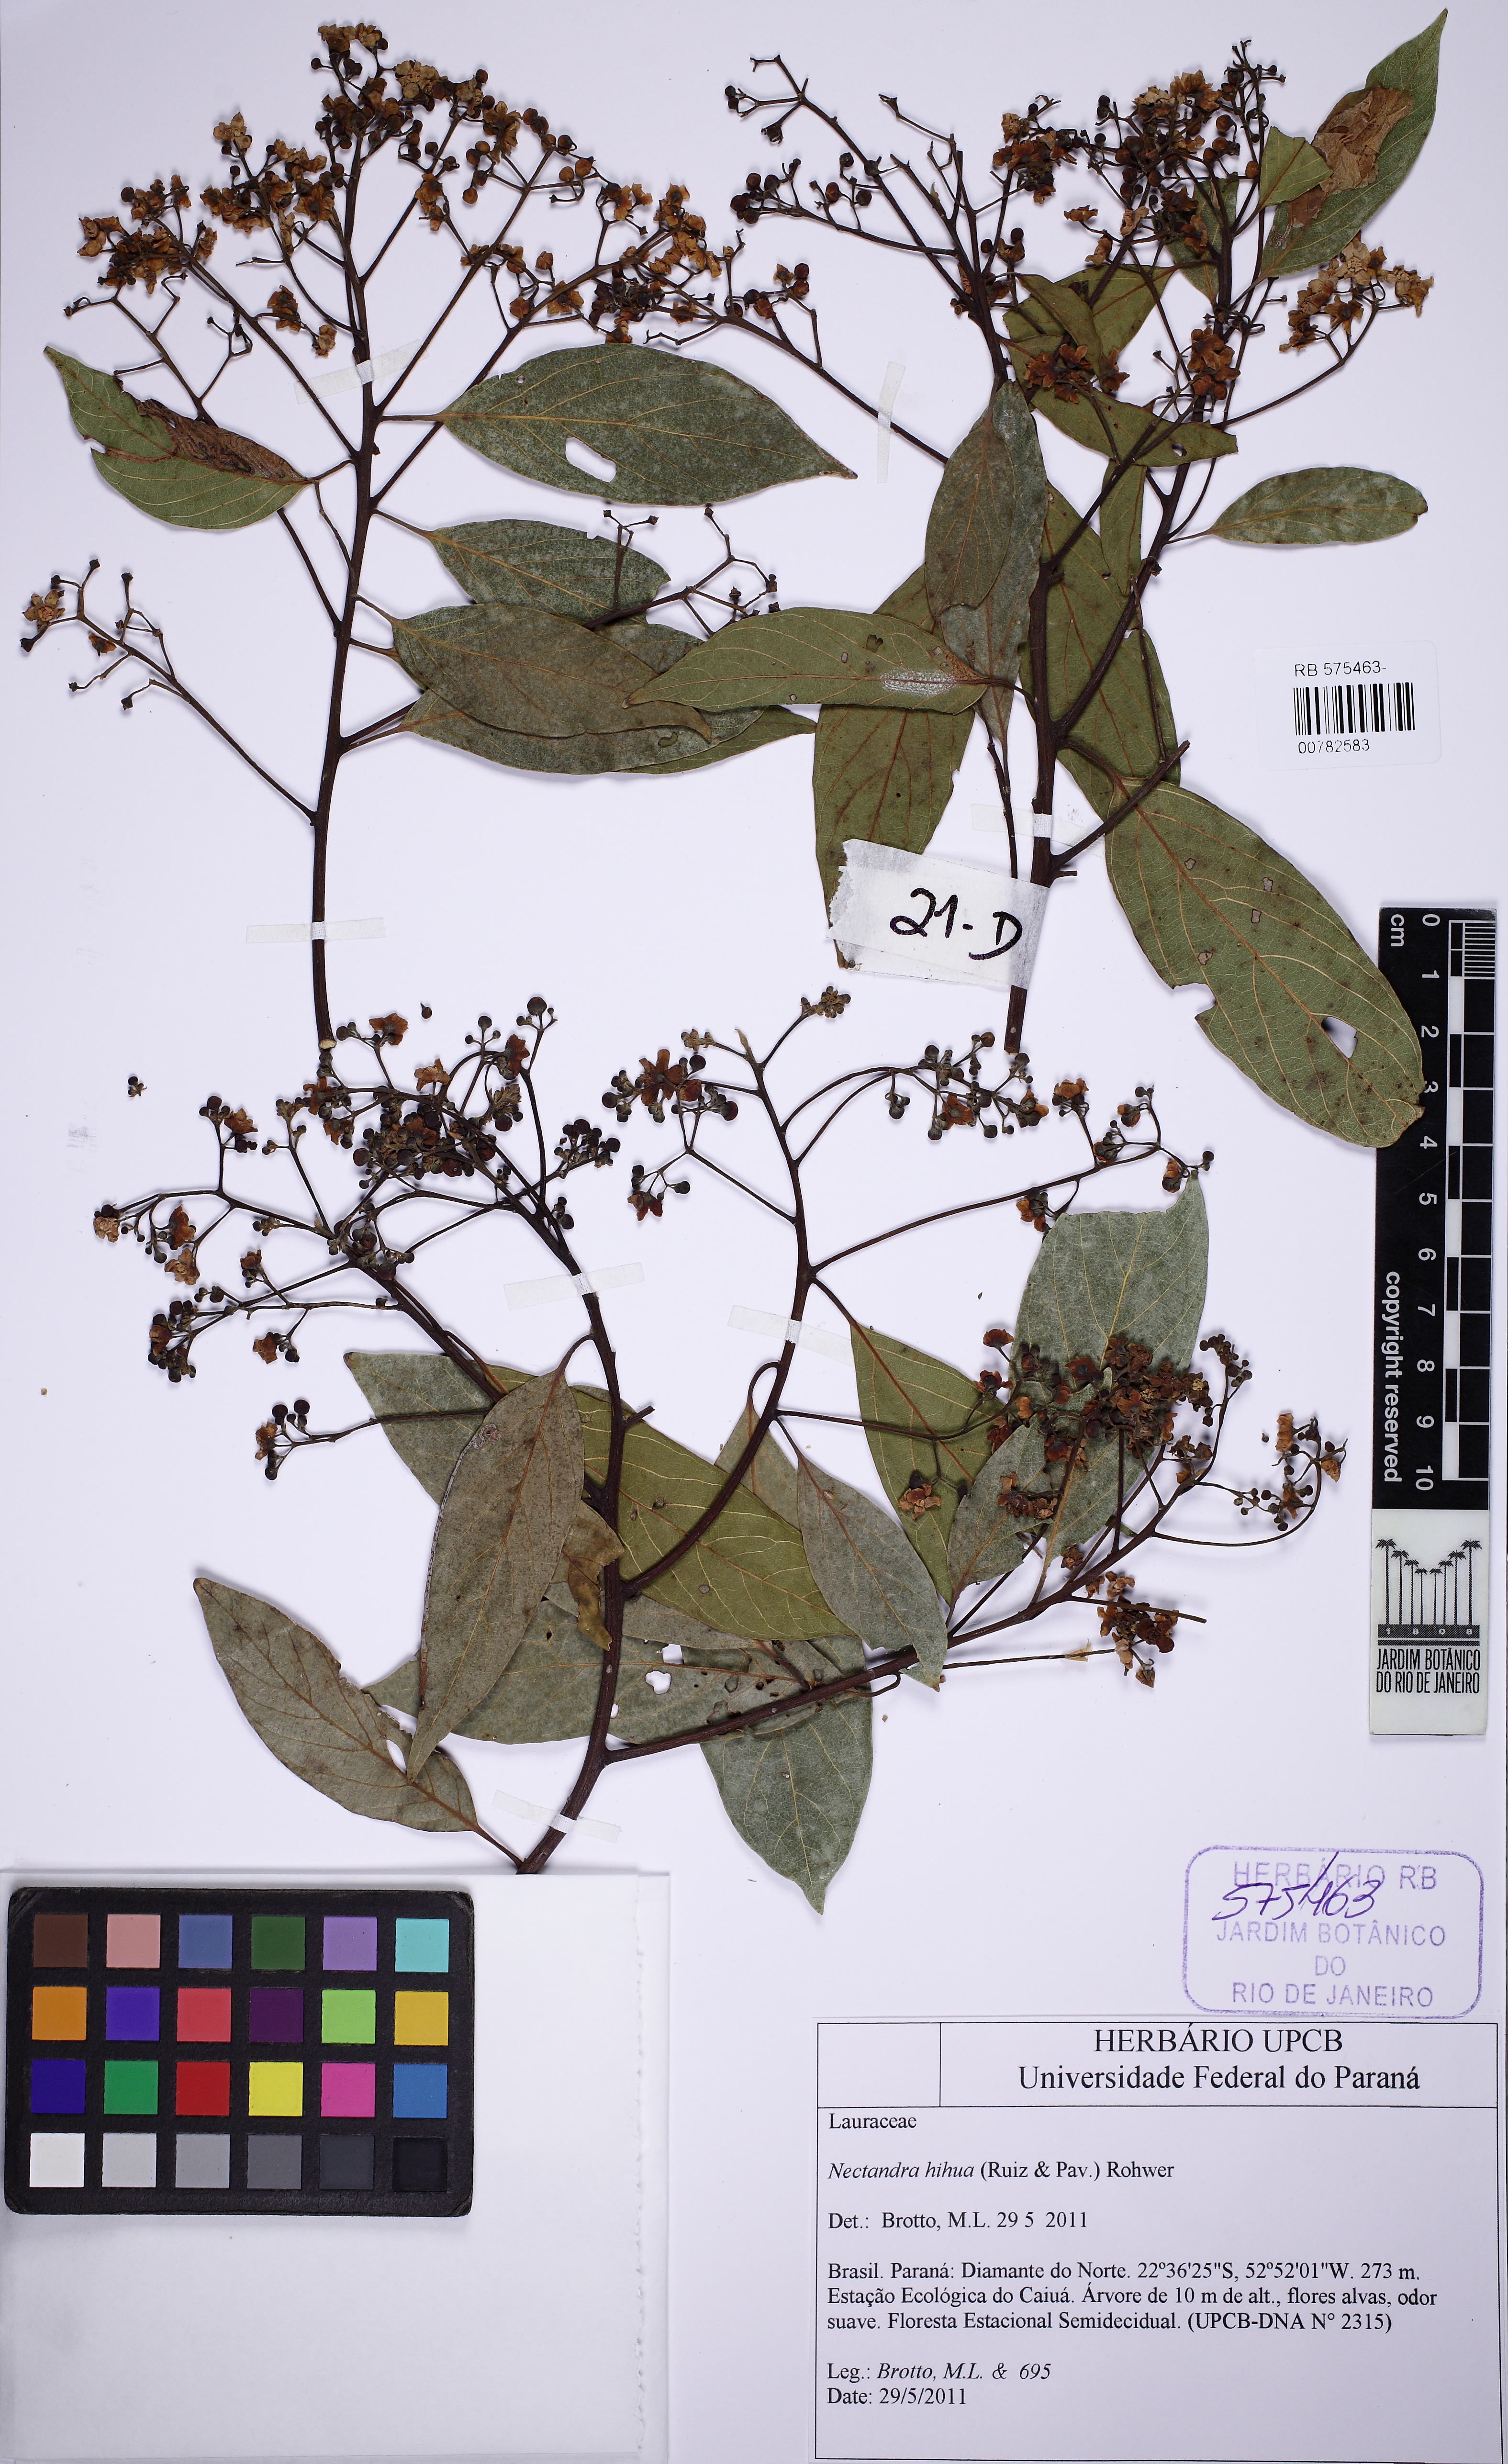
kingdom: Plantae
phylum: Tracheophyta
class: Magnoliopsida
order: Laurales
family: Lauraceae
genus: Nectandra
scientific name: Nectandra hihua
